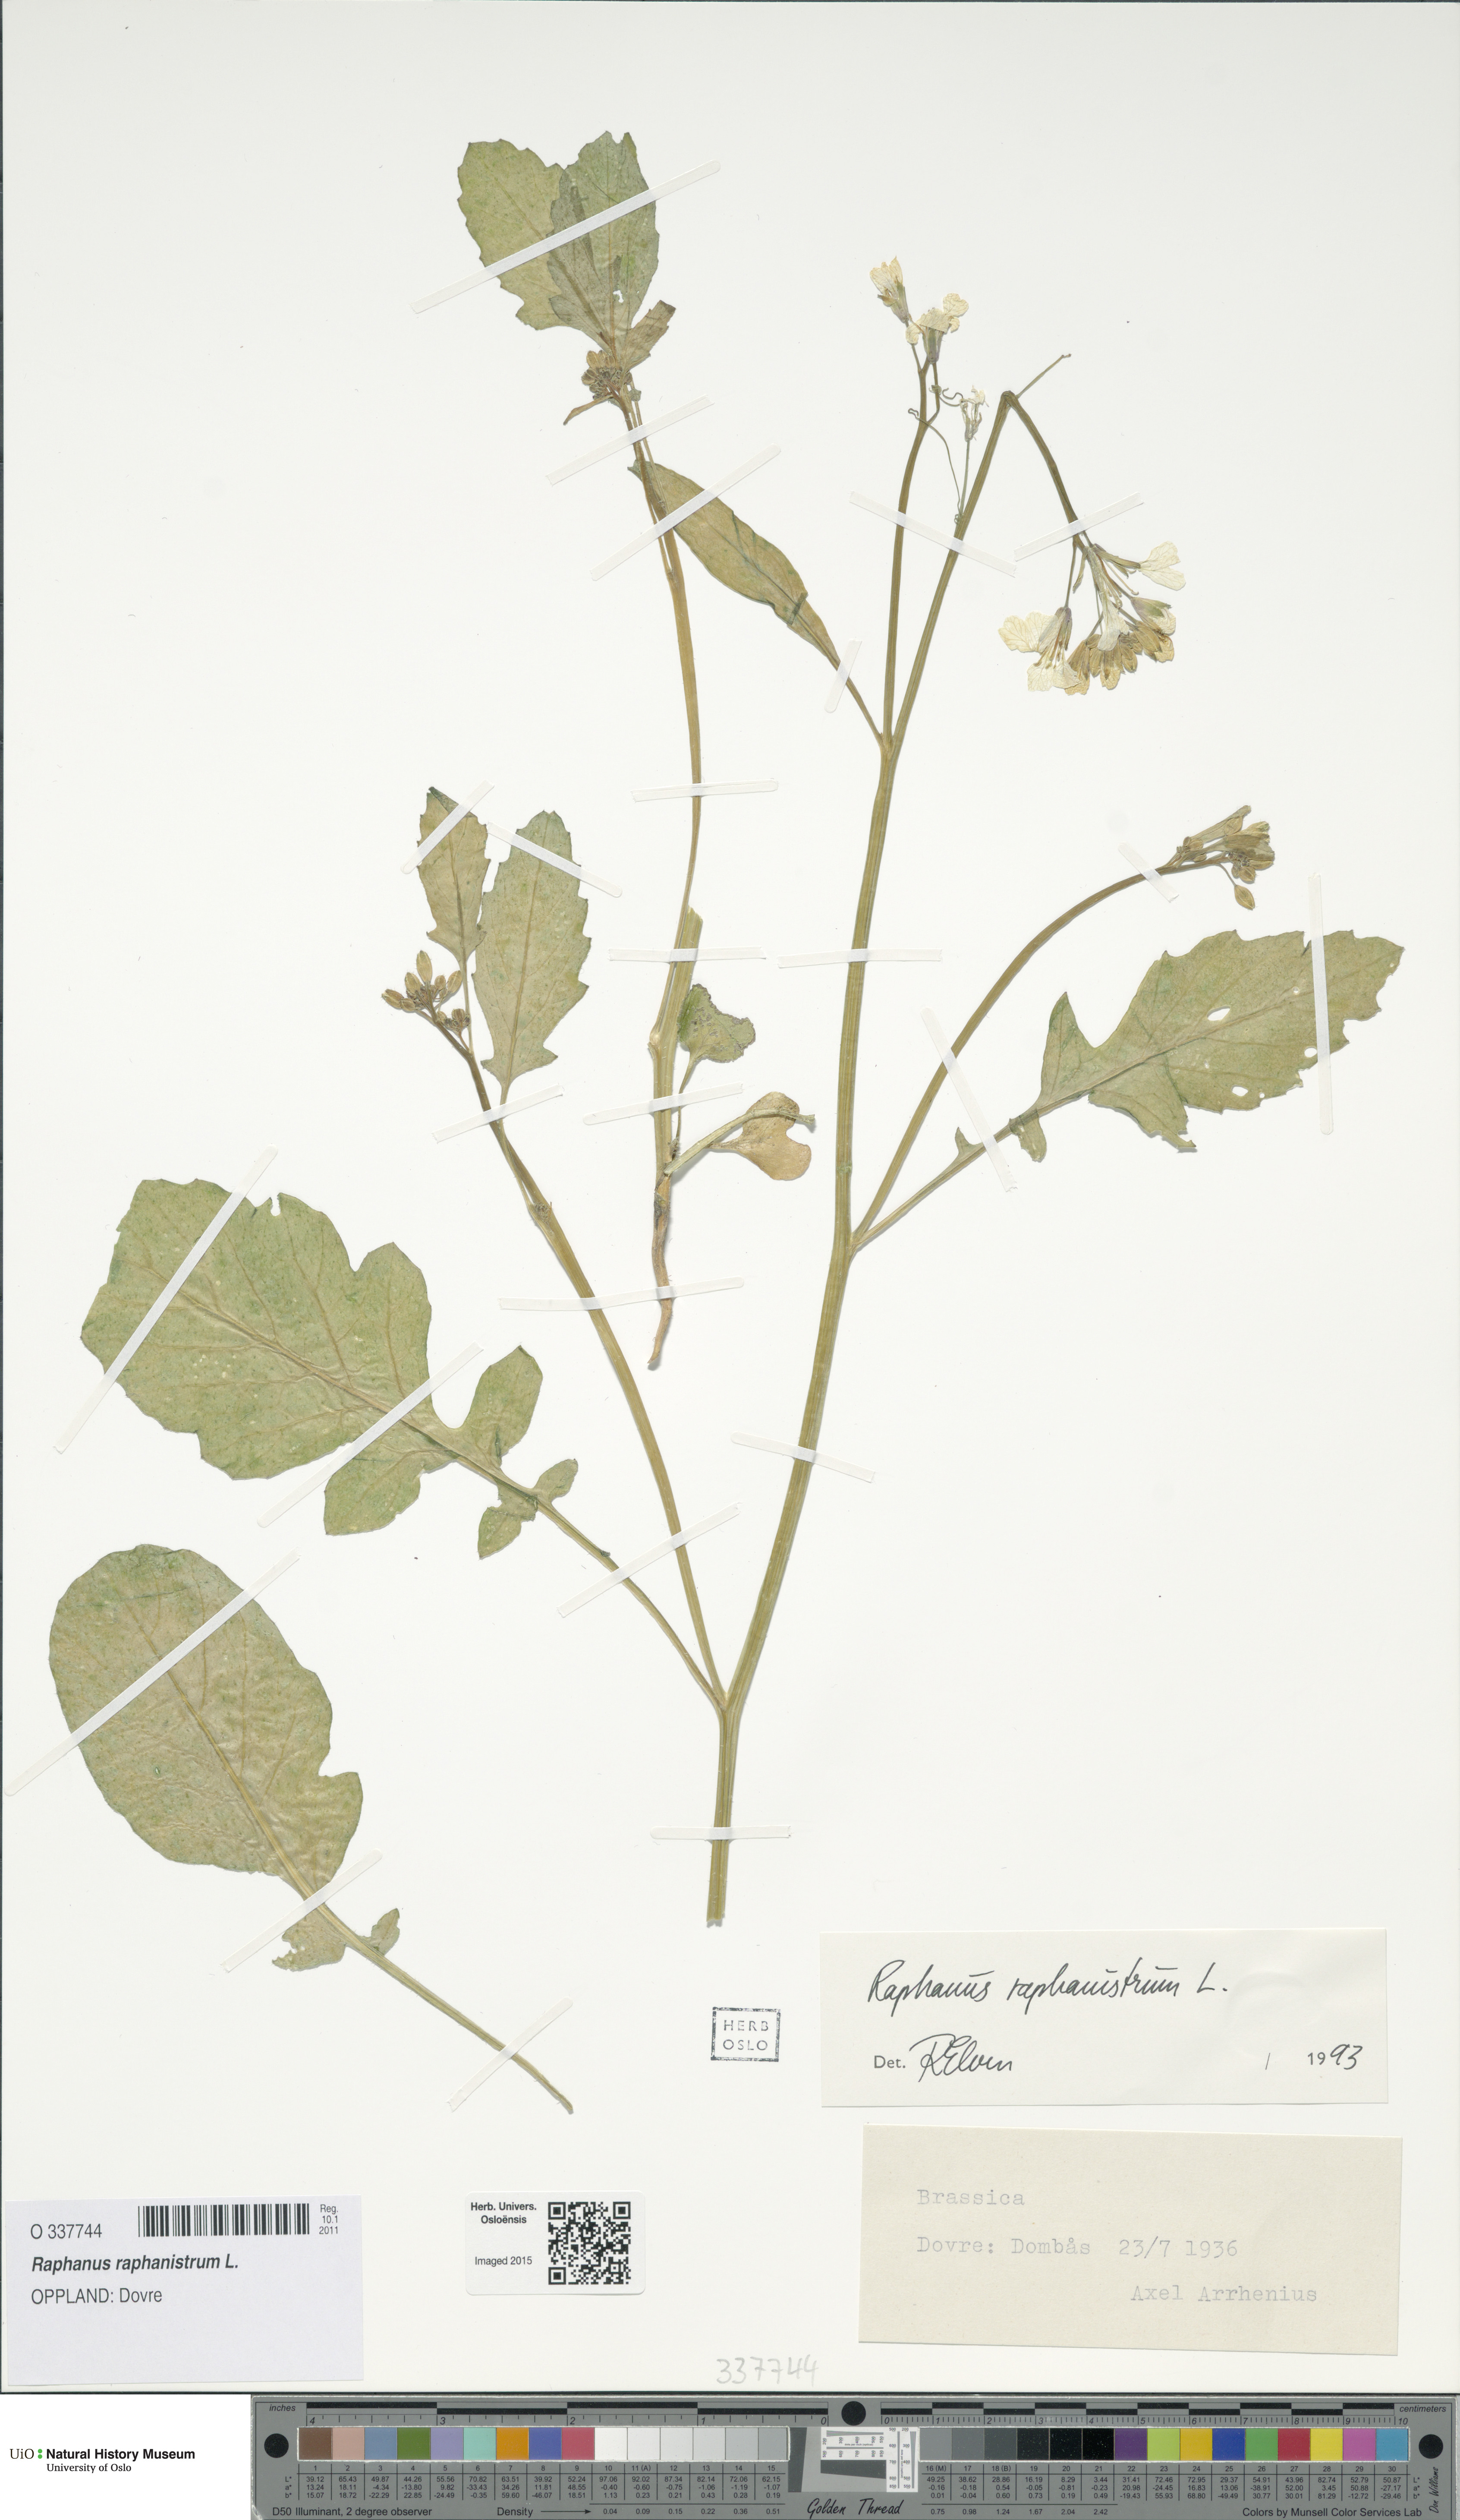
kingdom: Plantae
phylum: Tracheophyta
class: Magnoliopsida
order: Brassicales
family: Brassicaceae
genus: Raphanus
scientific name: Raphanus raphanistrum
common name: Wild radish
